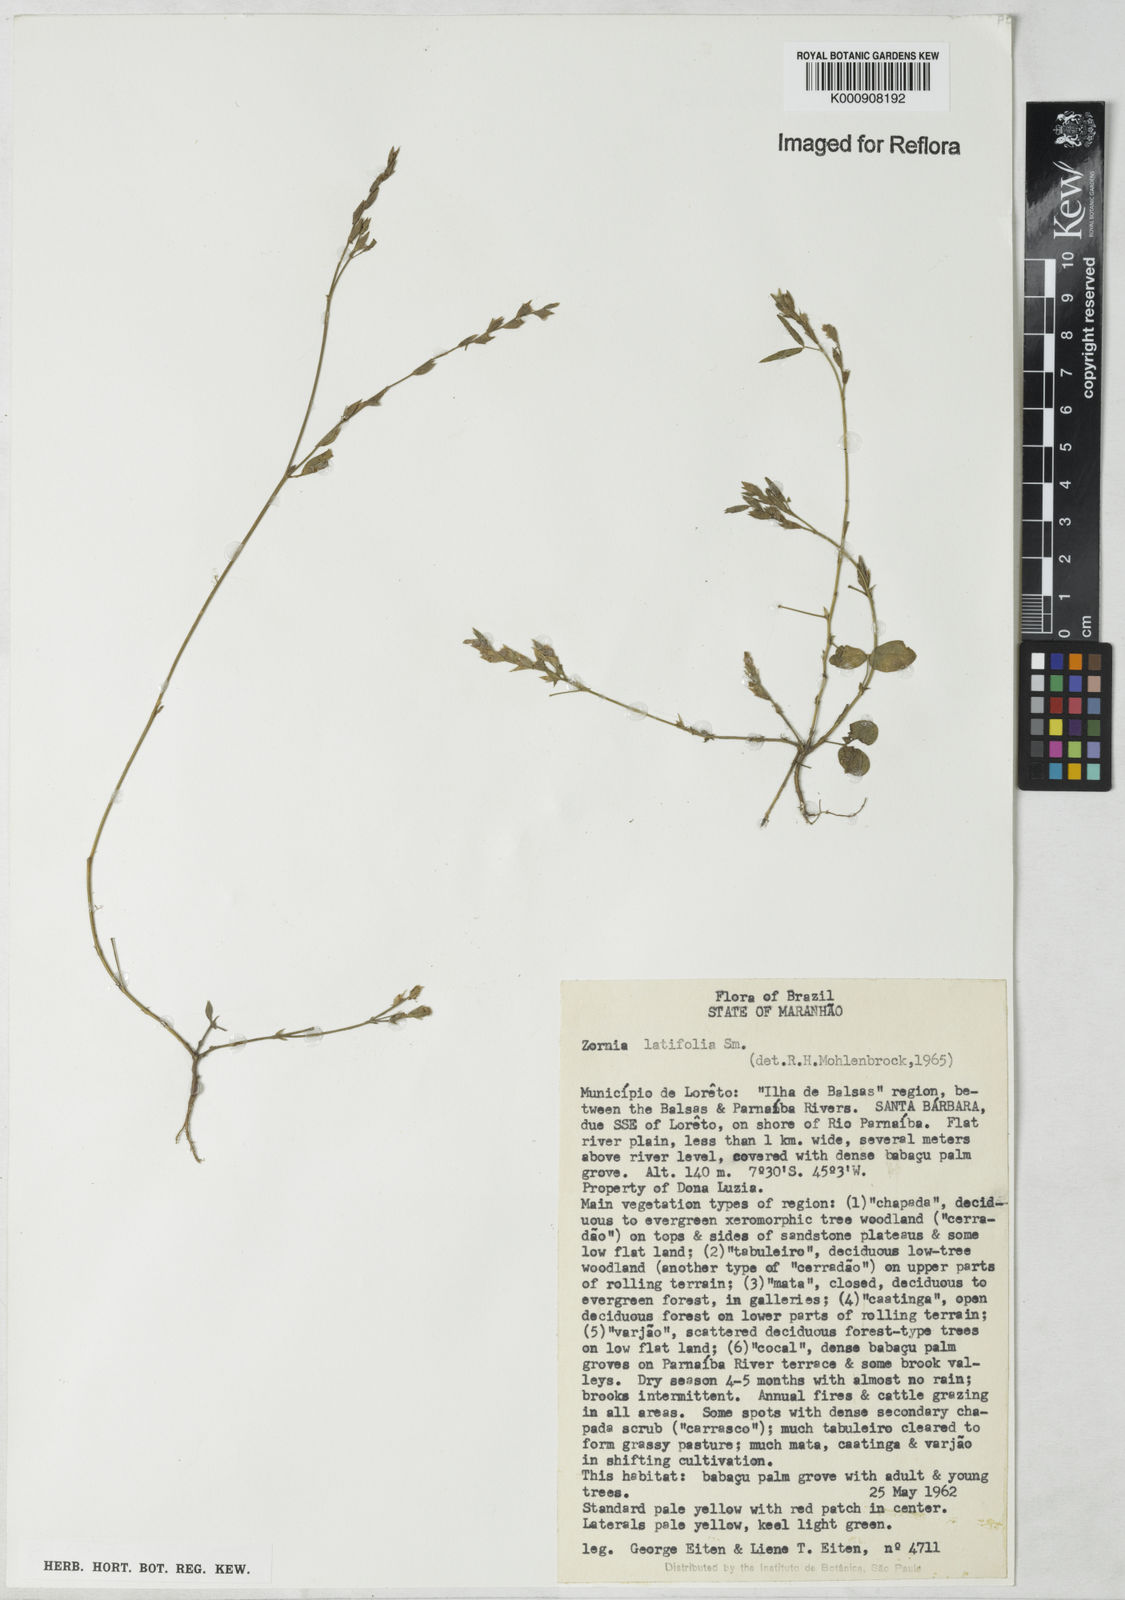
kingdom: Plantae
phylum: Tracheophyta
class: Magnoliopsida
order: Fabales
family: Fabaceae
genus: Zornia
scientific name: Zornia latifolia
